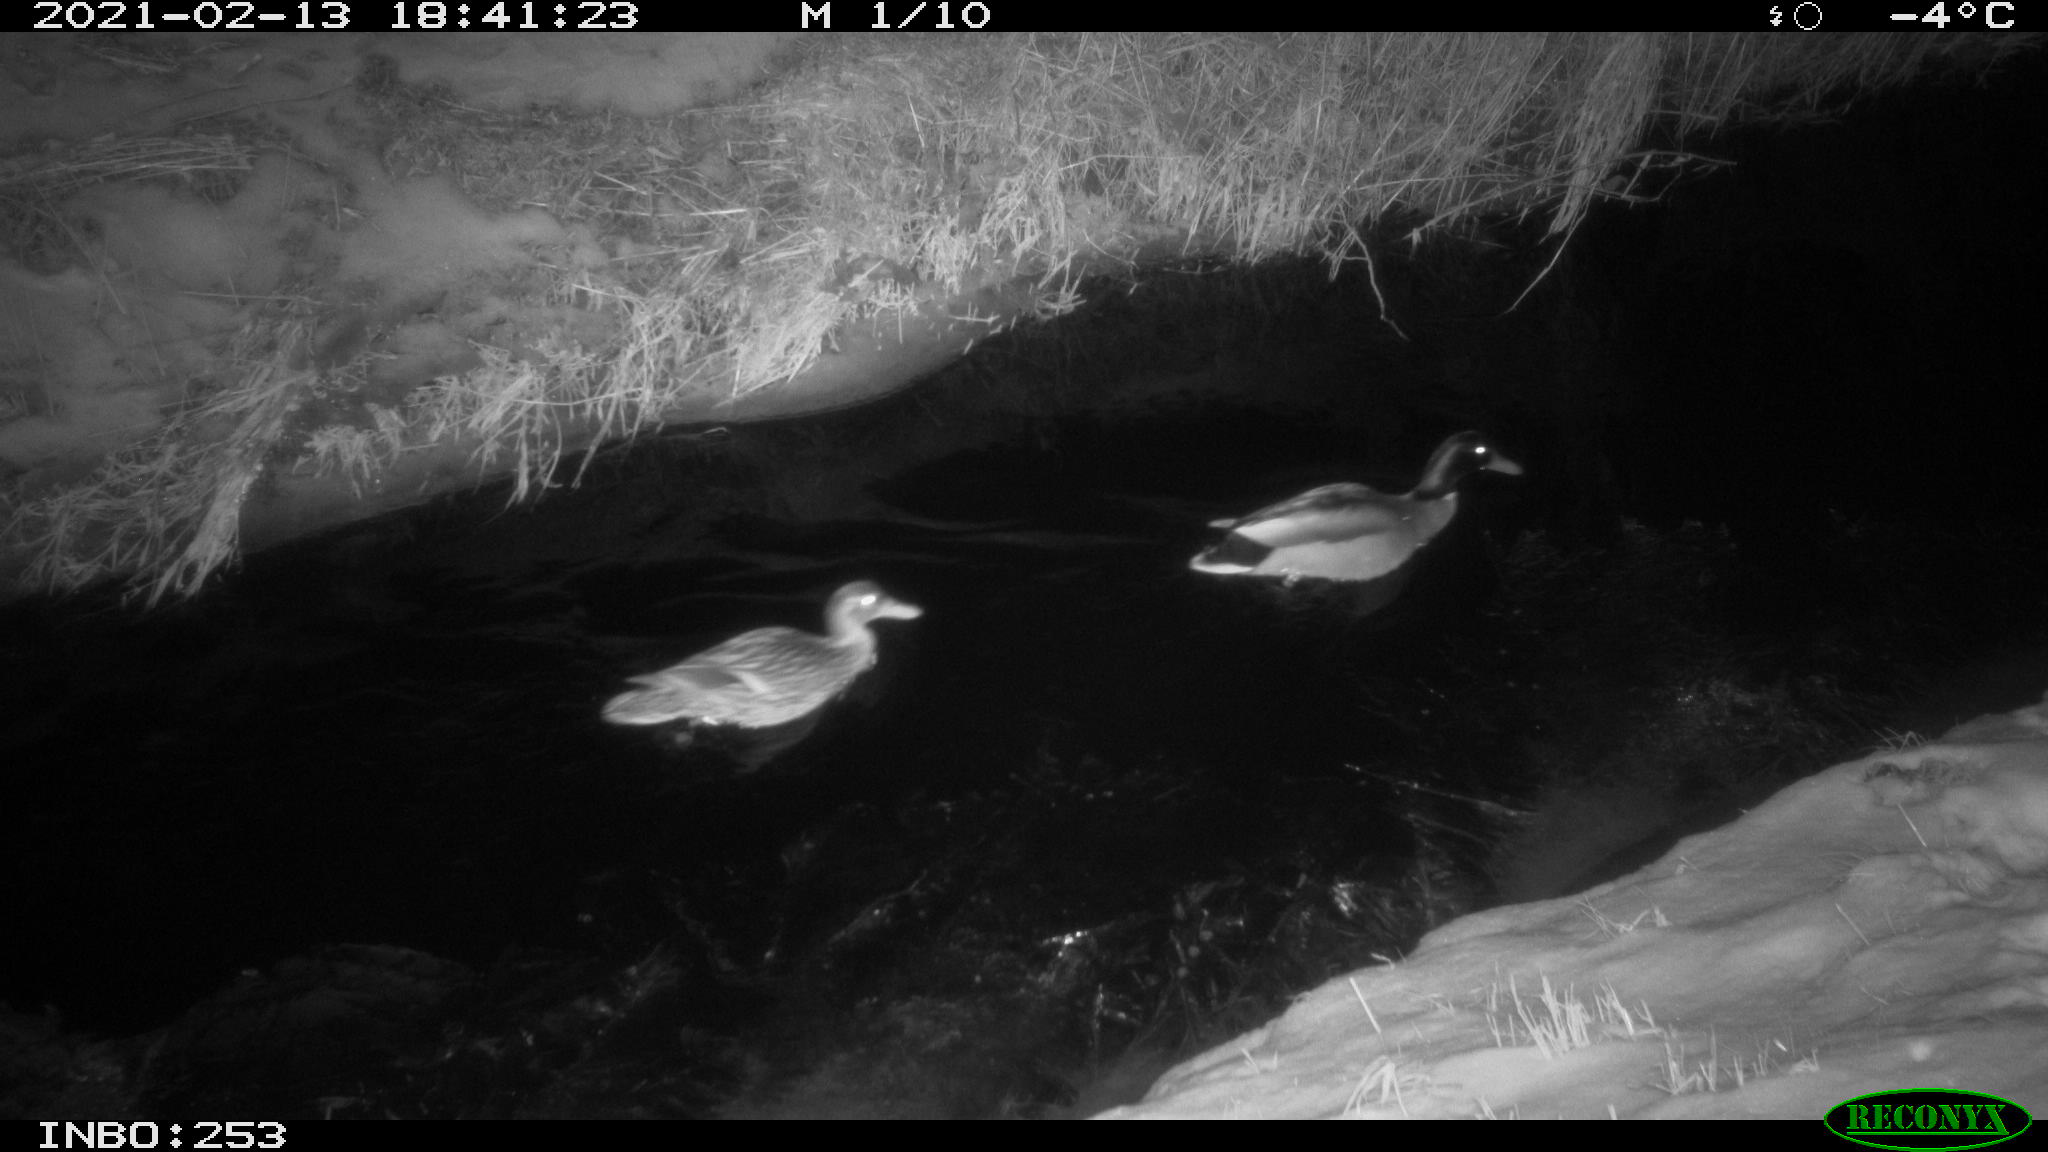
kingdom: Animalia
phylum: Chordata
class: Aves
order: Anseriformes
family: Anatidae
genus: Anas
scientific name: Anas platyrhynchos
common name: Mallard
